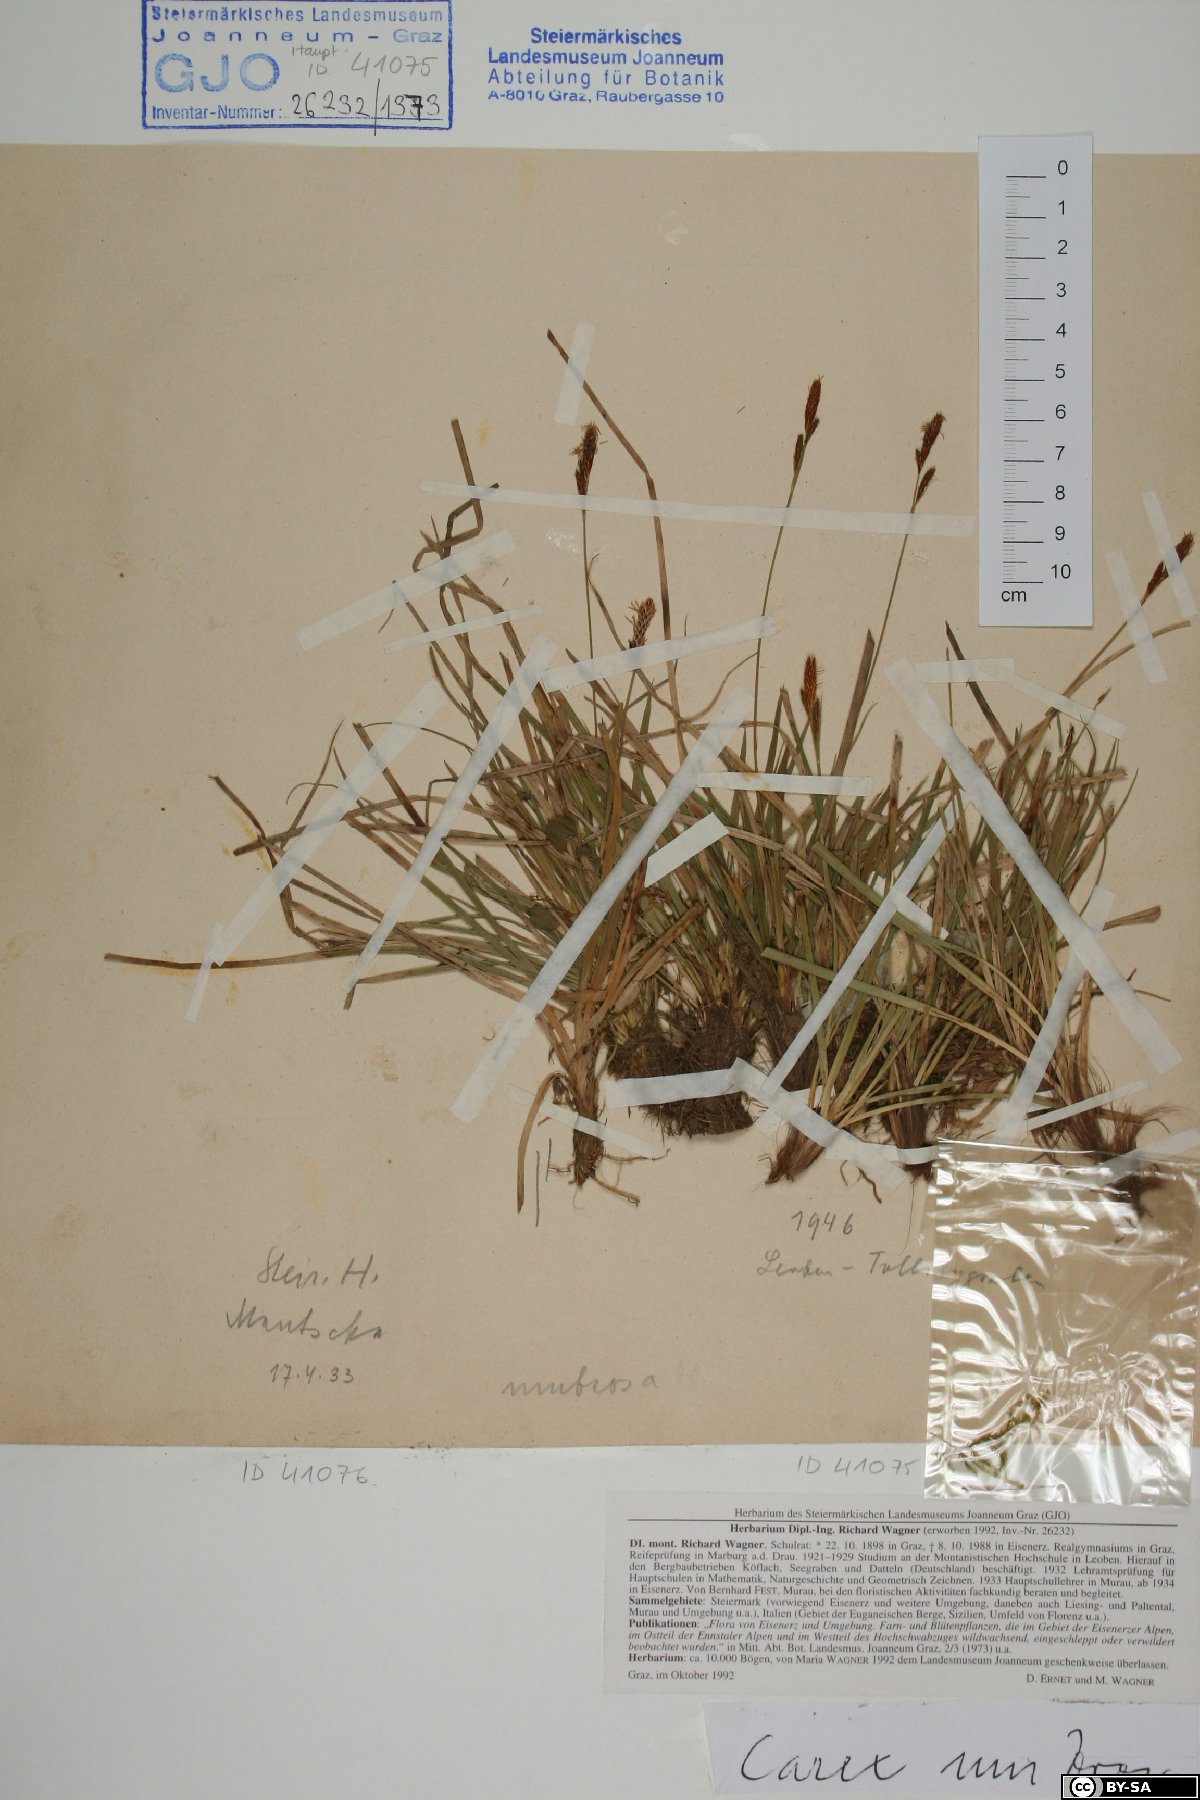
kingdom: Plantae
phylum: Tracheophyta
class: Liliopsida
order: Poales
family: Cyperaceae
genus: Carex
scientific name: Carex umbrosa
